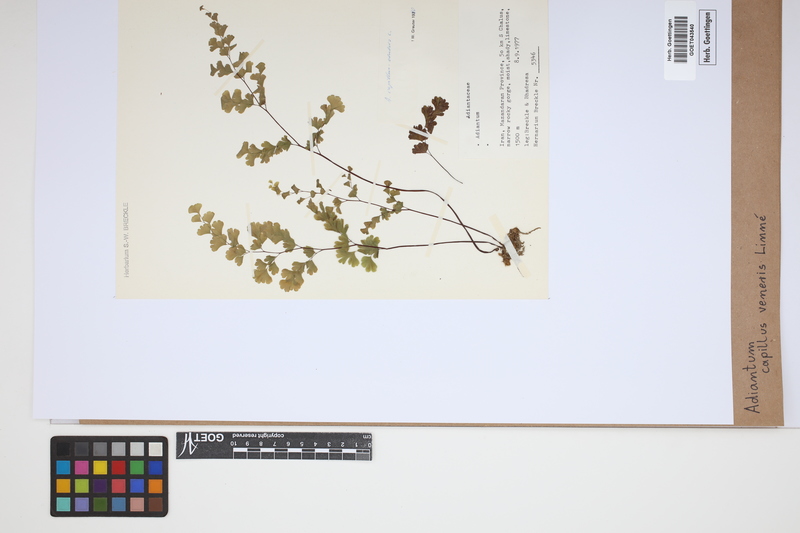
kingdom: Plantae
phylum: Tracheophyta
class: Polypodiopsida
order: Polypodiales
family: Pteridaceae
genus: Adiantum
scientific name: Adiantum capillus-veneris
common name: Maidenhair fern
